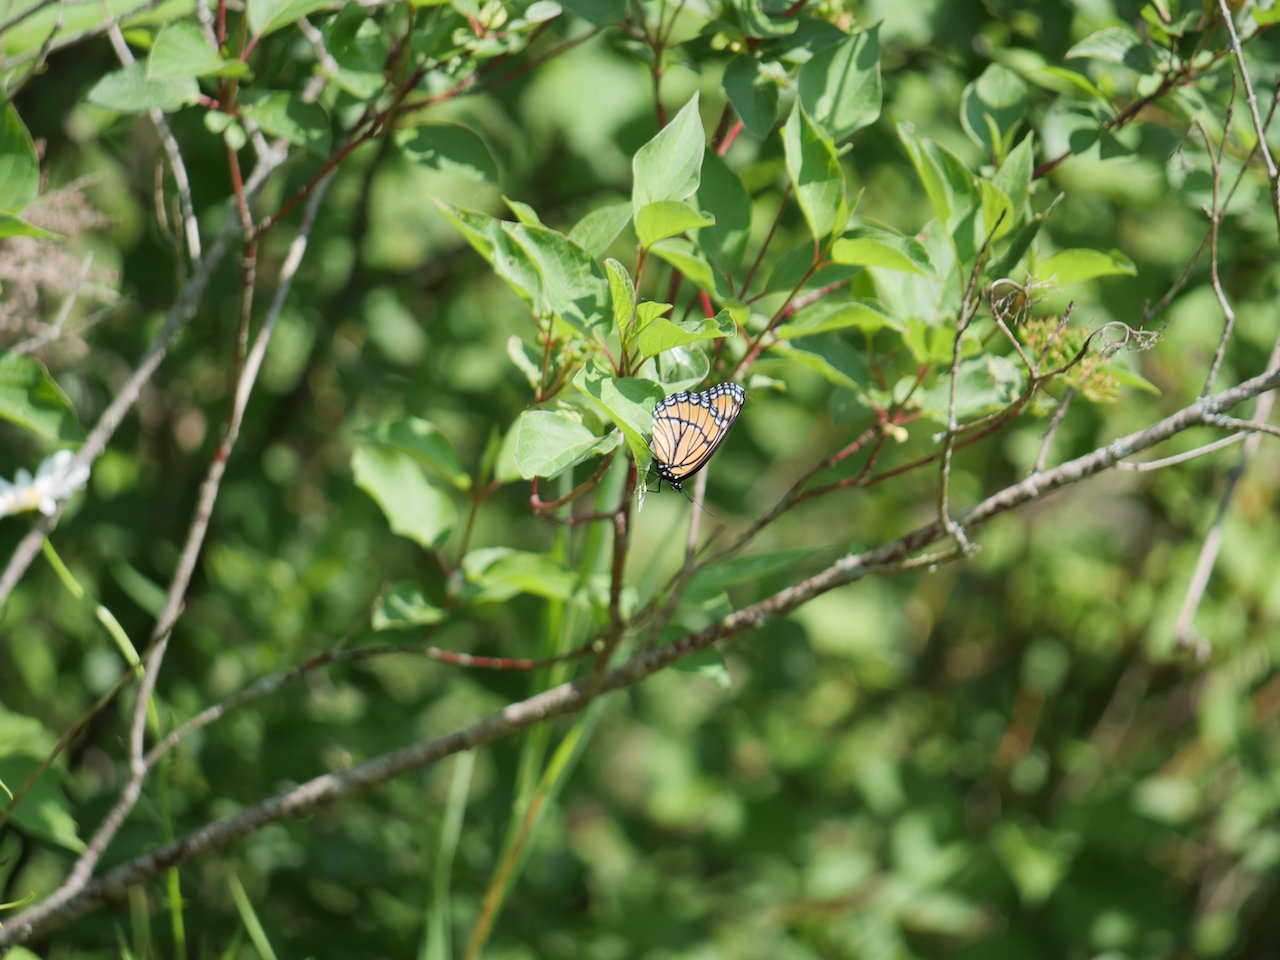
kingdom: Animalia
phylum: Arthropoda
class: Insecta
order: Lepidoptera
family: Nymphalidae
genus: Limenitis
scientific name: Limenitis archippus
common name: Viceroy
